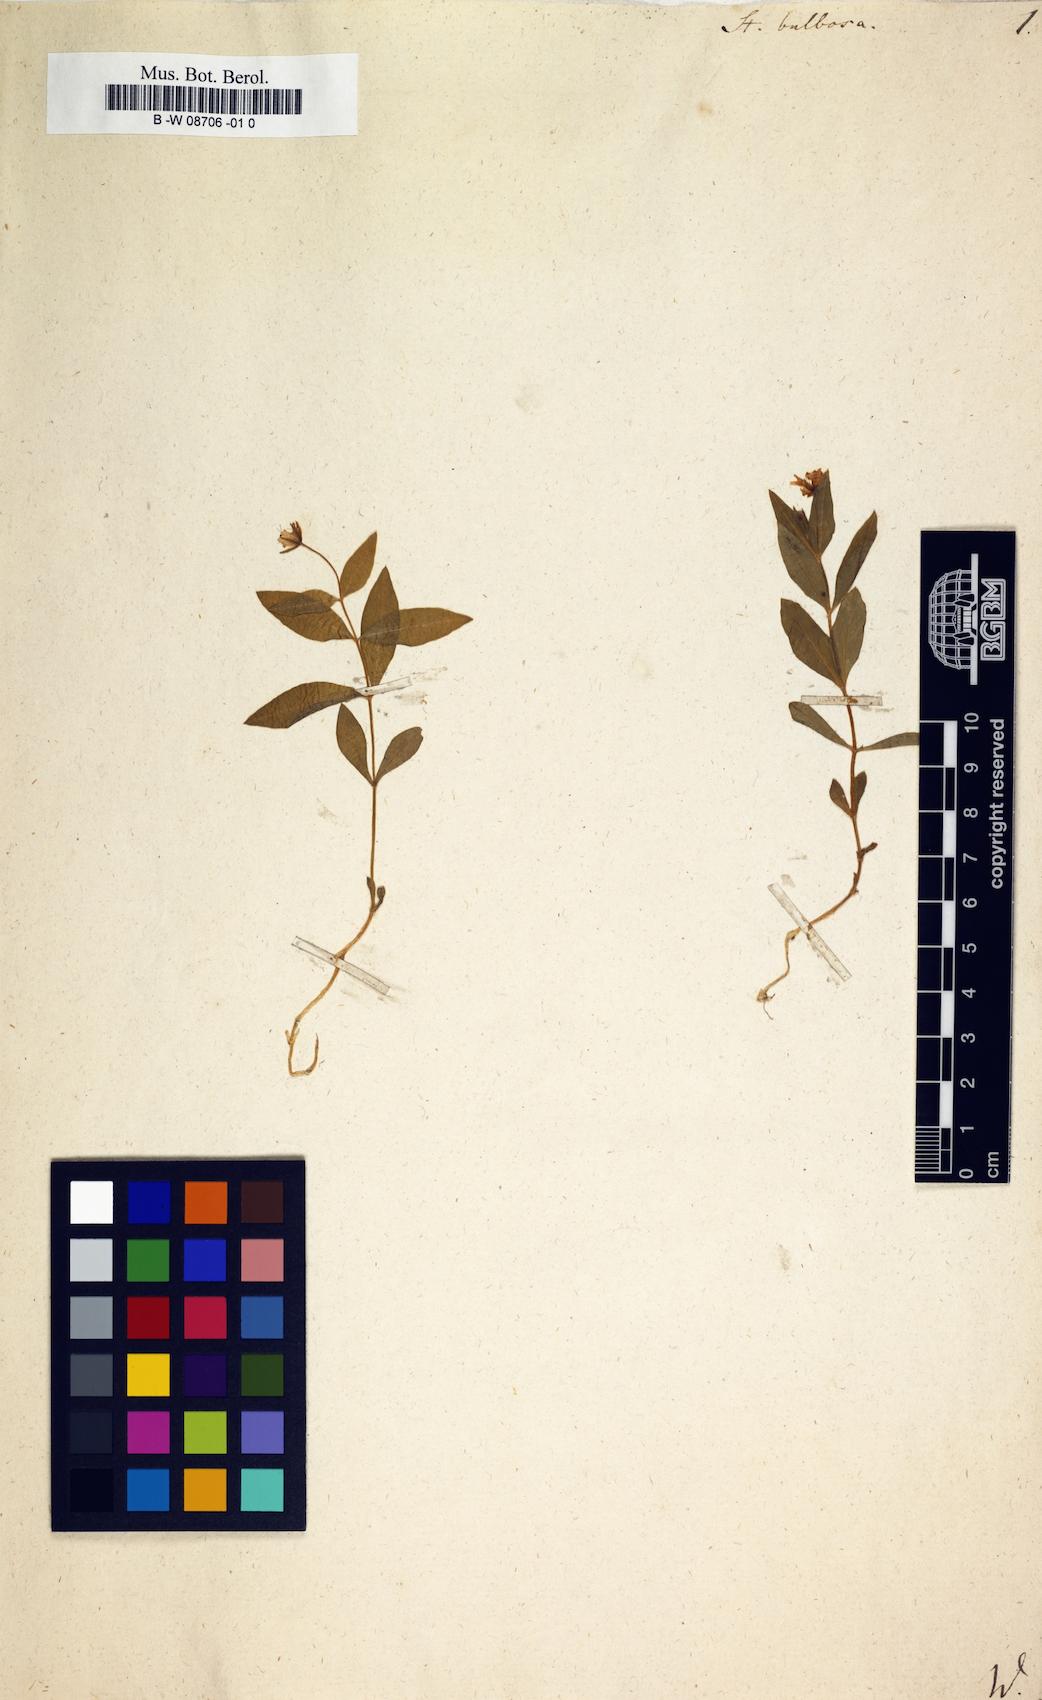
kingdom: Plantae
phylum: Tracheophyta
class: Magnoliopsida
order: Caryophyllales
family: Caryophyllaceae
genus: Pseudostellaria
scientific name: Pseudostellaria europaea
